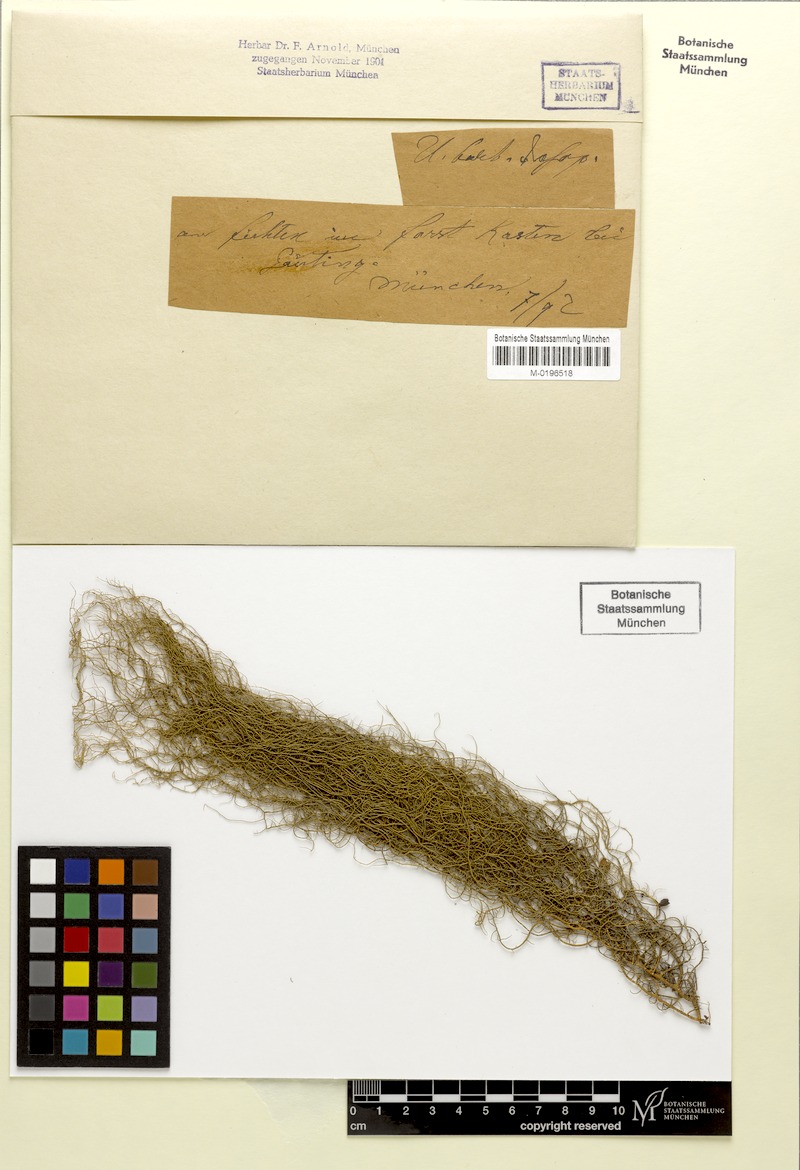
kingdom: Fungi
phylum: Ascomycota
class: Lecanoromycetes
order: Lecanorales
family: Parmeliaceae
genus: Usnea
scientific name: Usnea dasopoga
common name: Fishbone beard lichen
